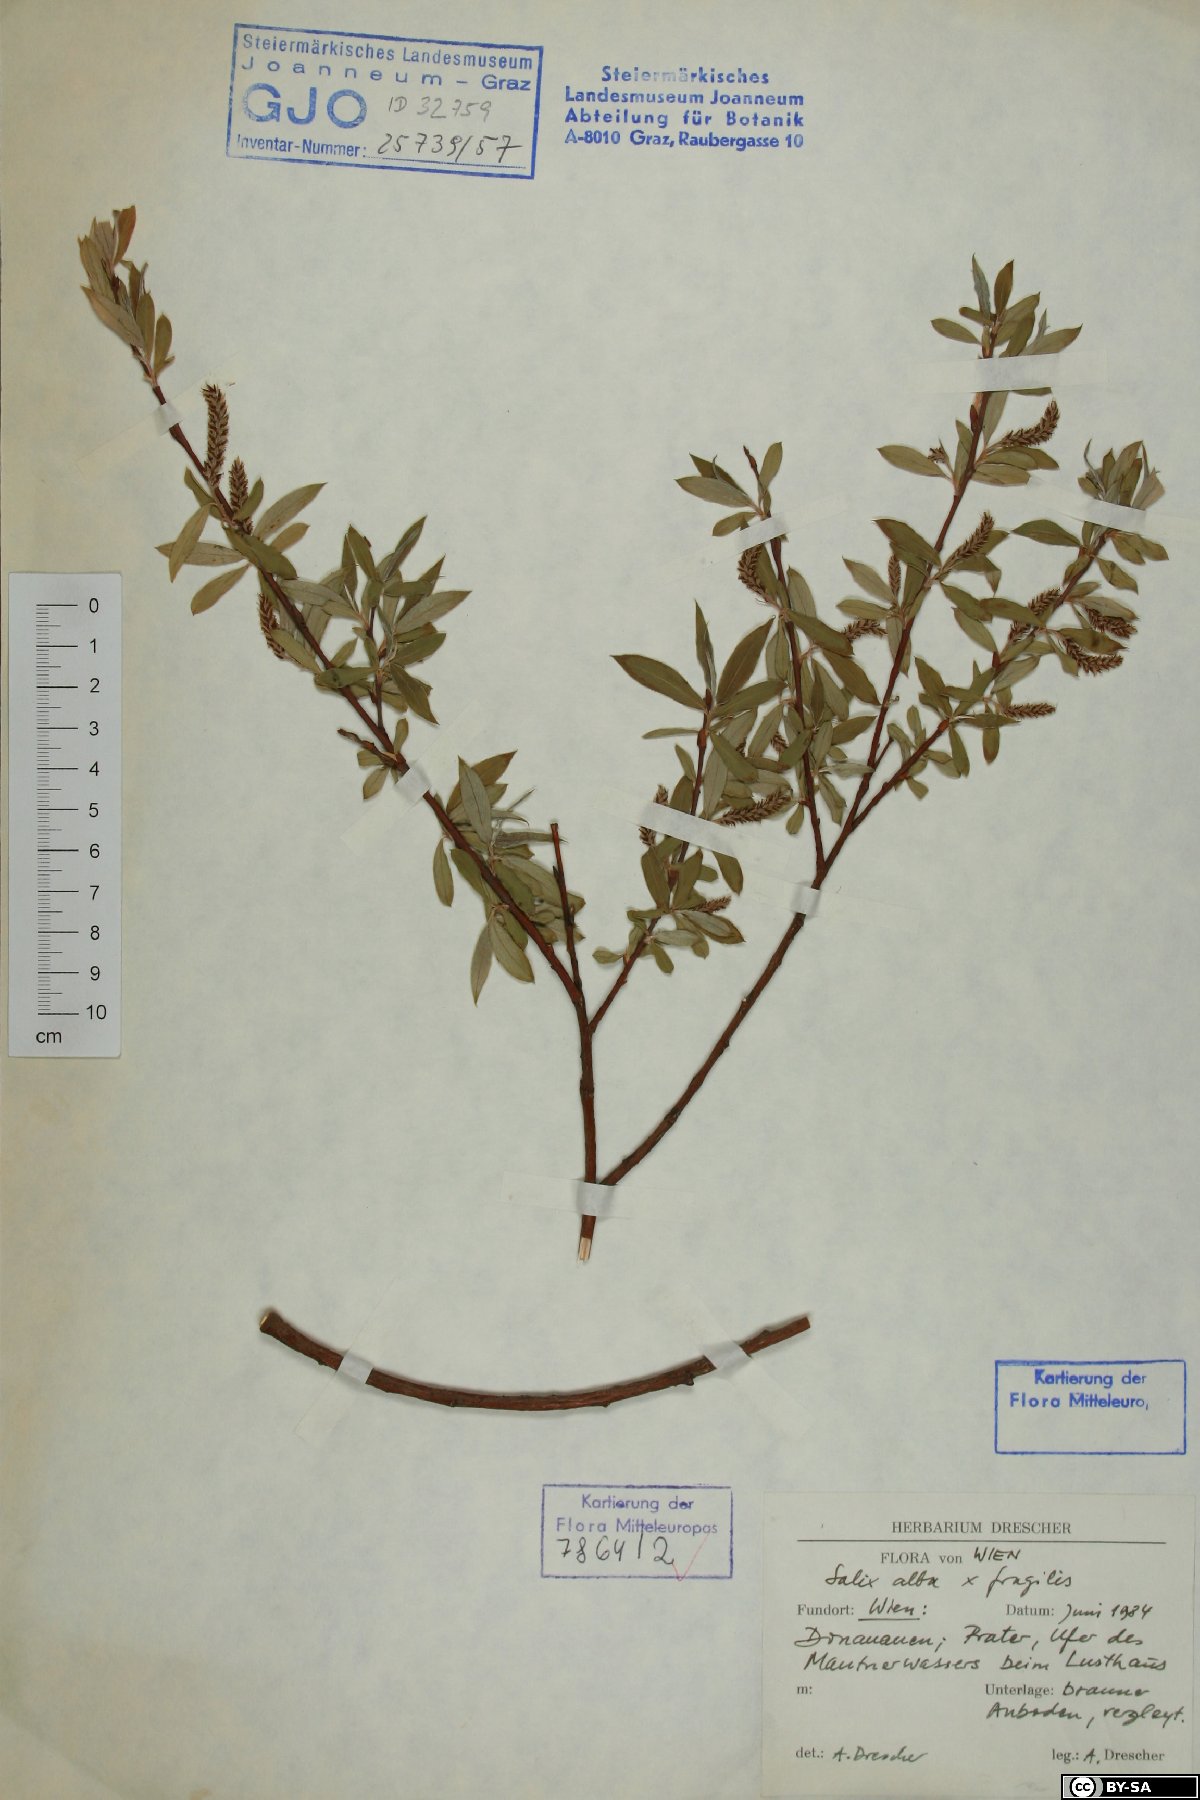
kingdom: Plantae
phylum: Tracheophyta
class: Magnoliopsida
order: Malpighiales
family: Salicaceae
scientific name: Salicaceae
